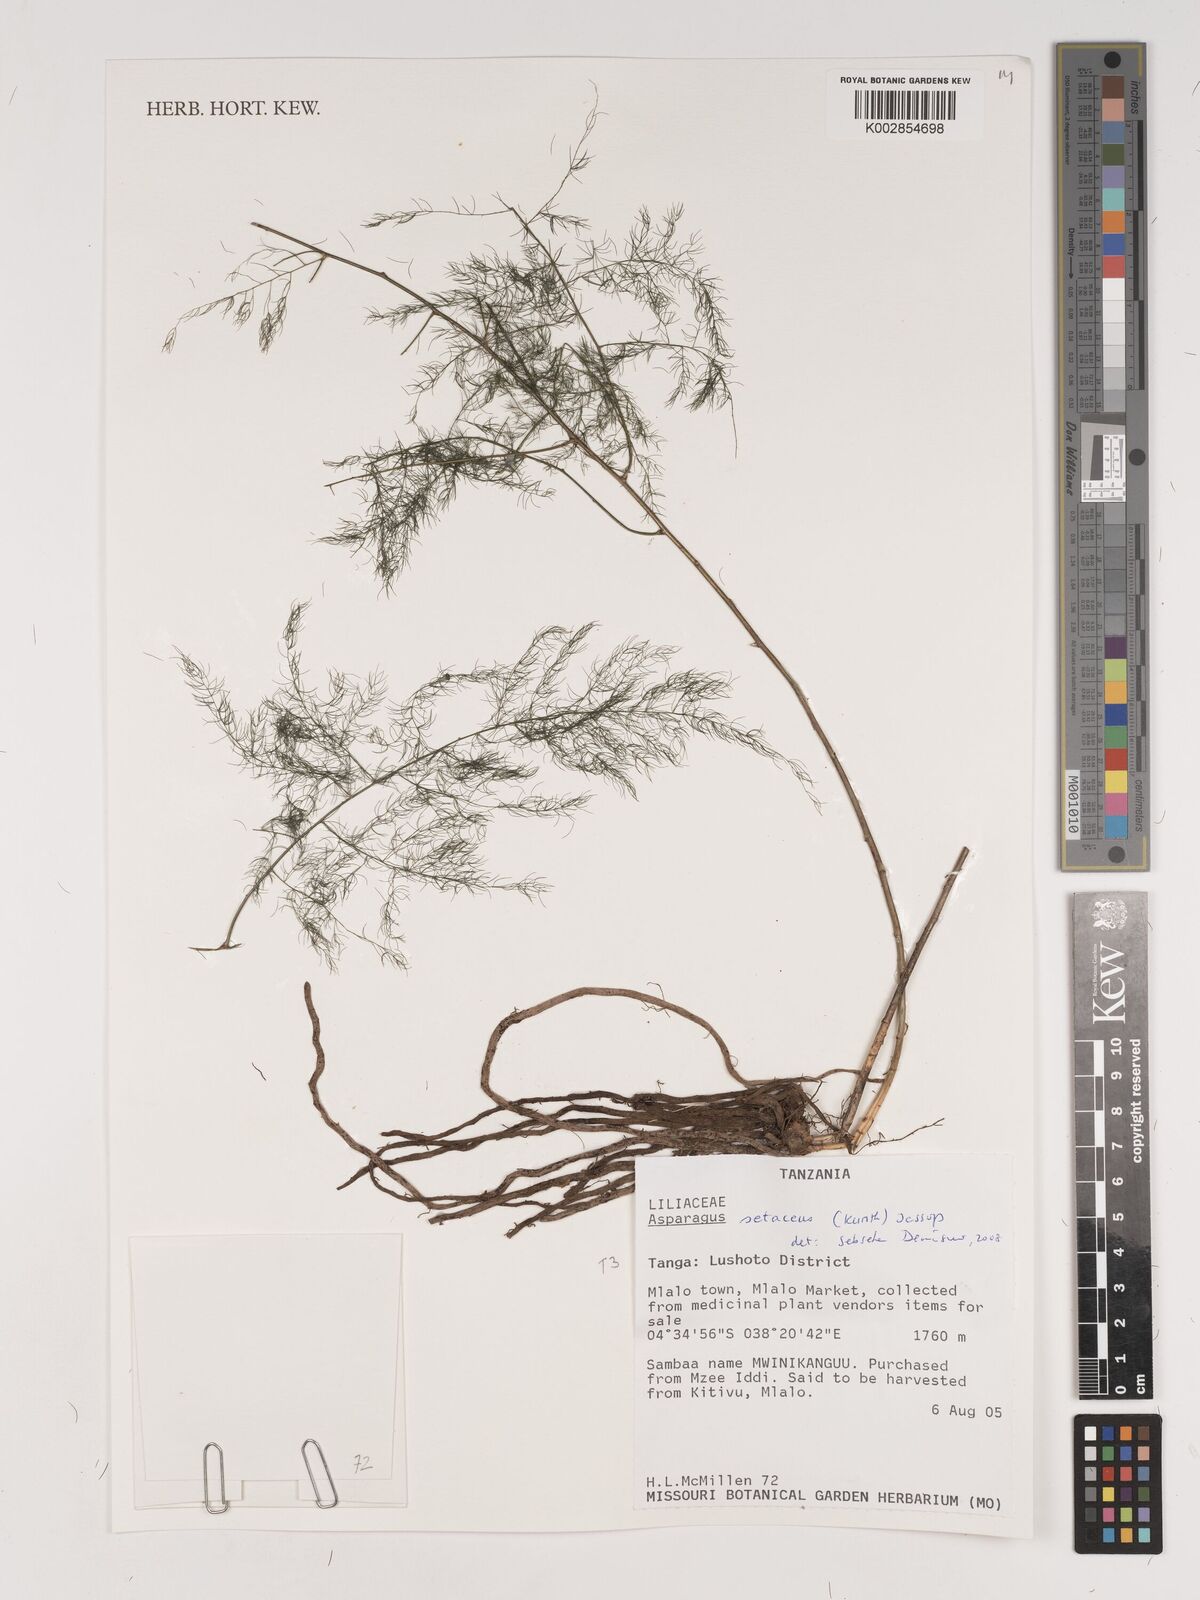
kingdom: Plantae
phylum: Tracheophyta
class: Liliopsida
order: Asparagales
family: Asparagaceae
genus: Asparagus
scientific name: Asparagus setaceus
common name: Common asparagus fern
